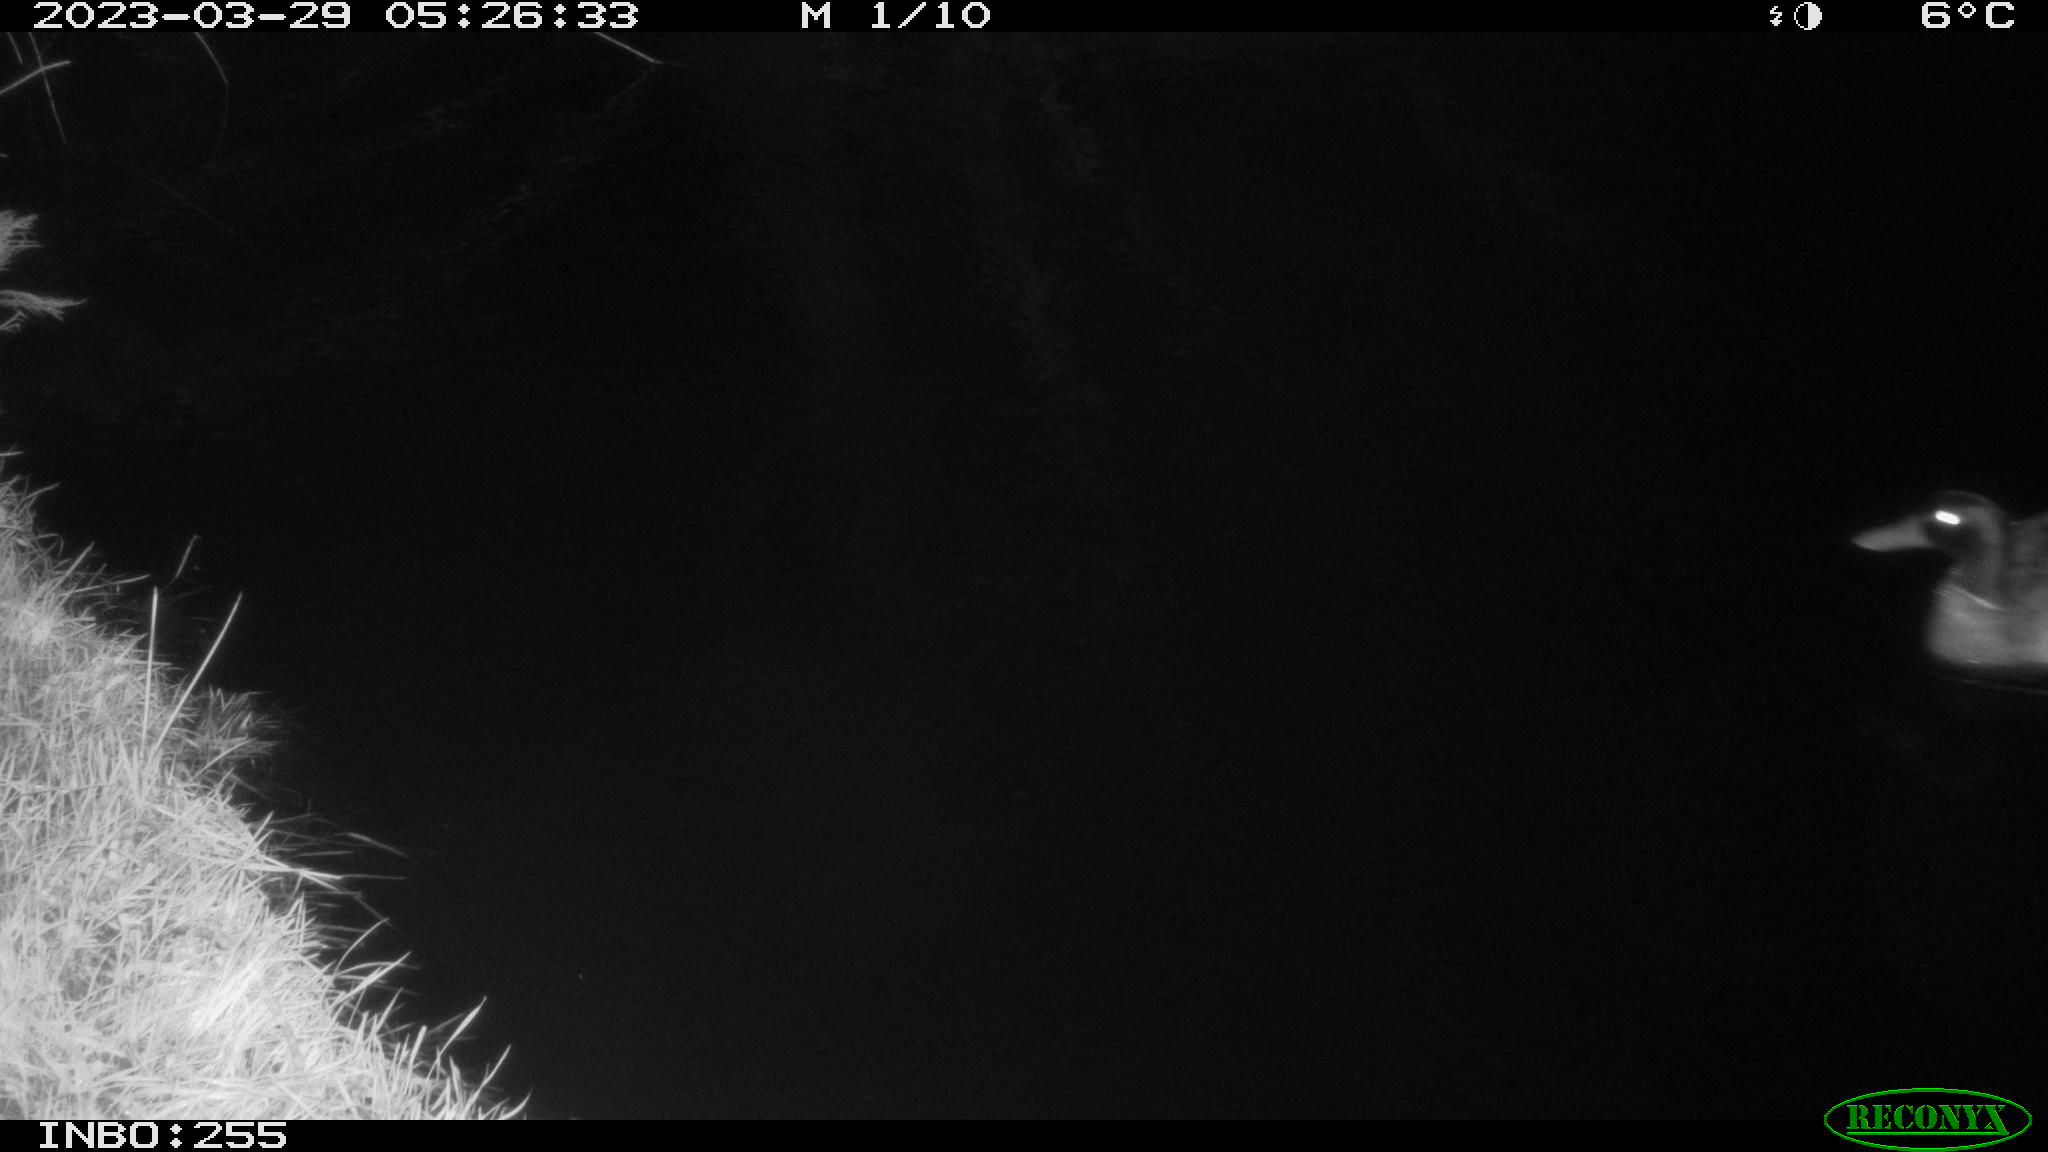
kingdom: Animalia
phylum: Chordata
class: Aves
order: Anseriformes
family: Anatidae
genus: Anas
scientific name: Anas
